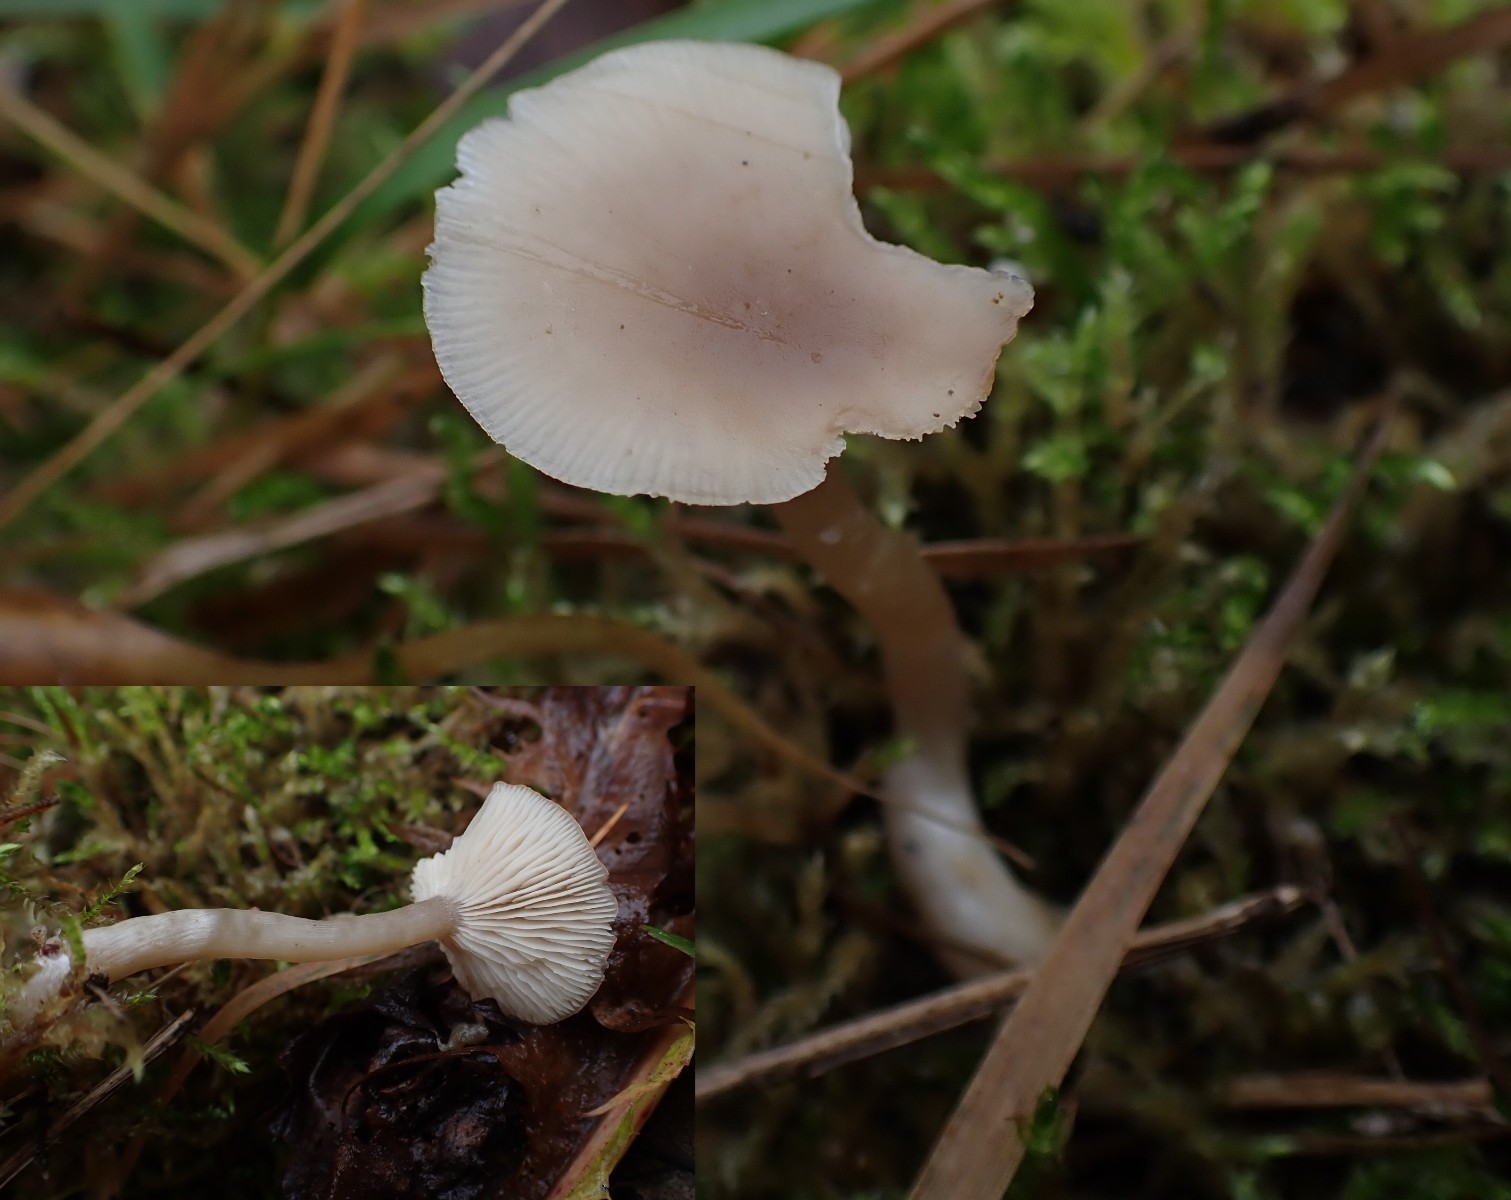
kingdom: Fungi
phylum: Basidiomycota
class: Agaricomycetes
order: Agaricales
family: Tricholomataceae
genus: Clitocybe
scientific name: Clitocybe fragrans
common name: vellugtende tragthat
